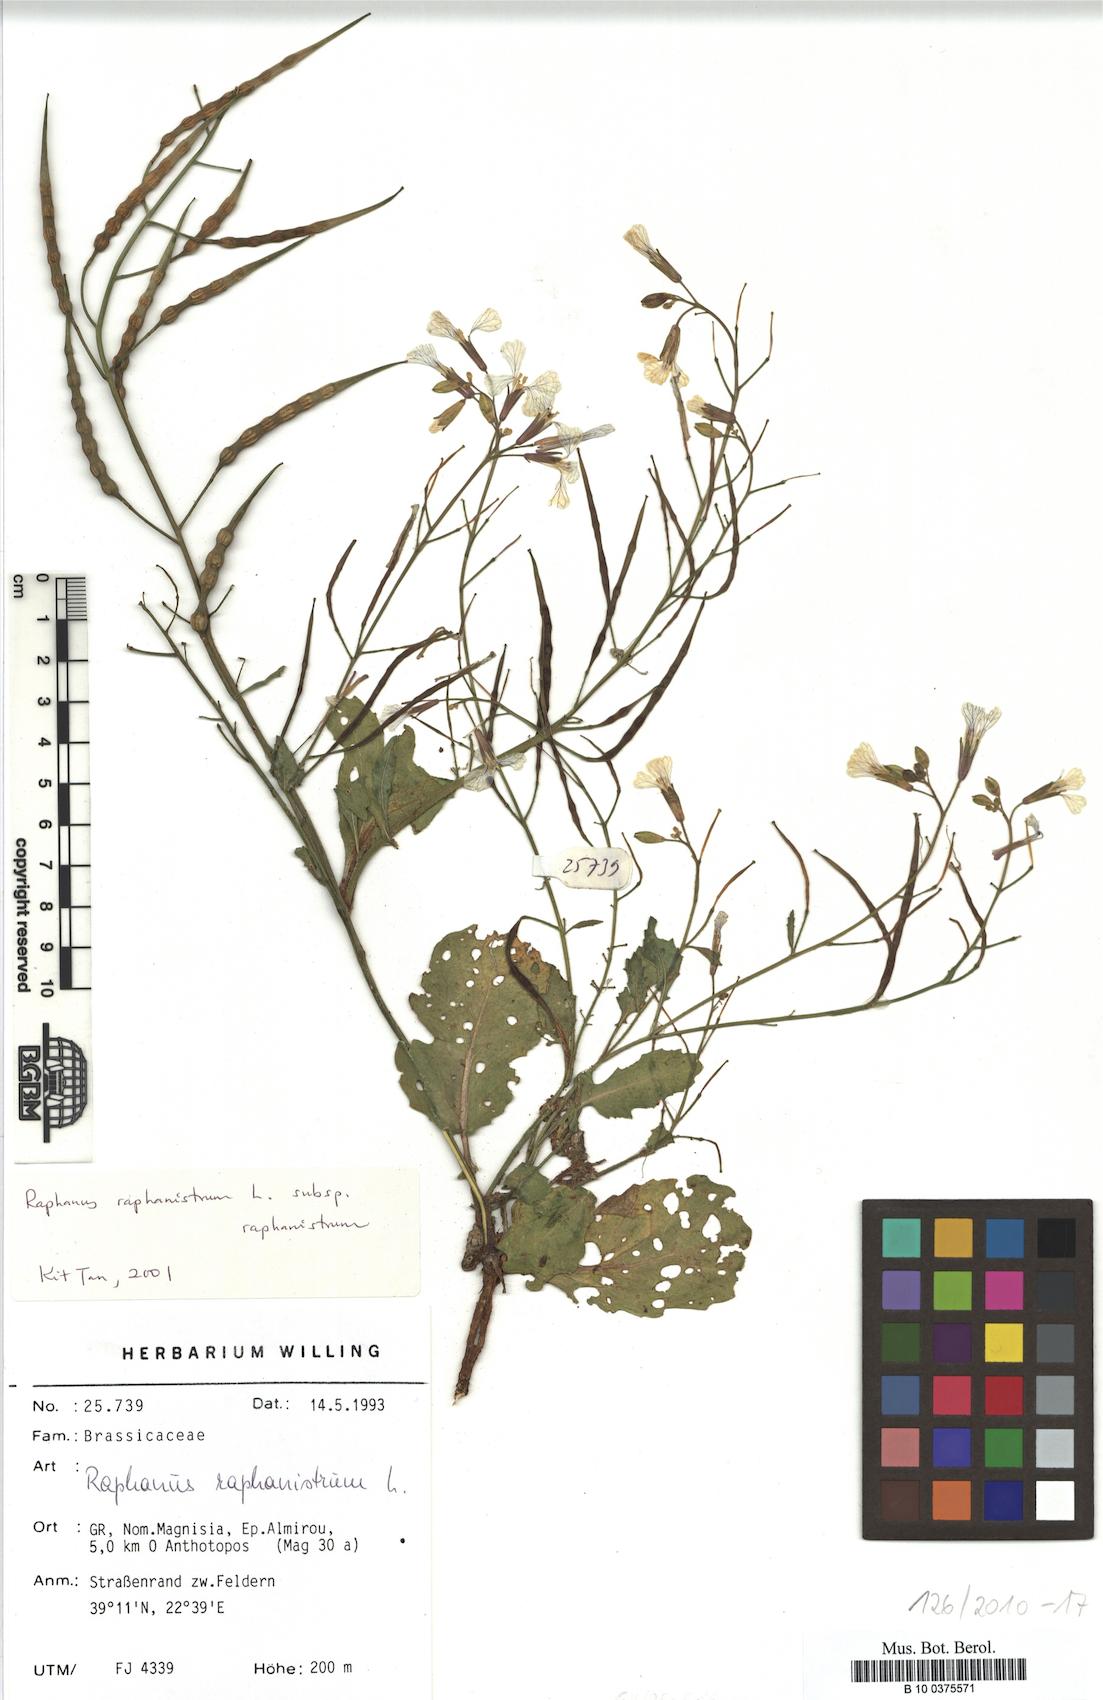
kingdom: Plantae
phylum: Tracheophyta
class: Magnoliopsida
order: Brassicales
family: Brassicaceae
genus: Raphanus
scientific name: Raphanus raphanistrum
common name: Wild radish
